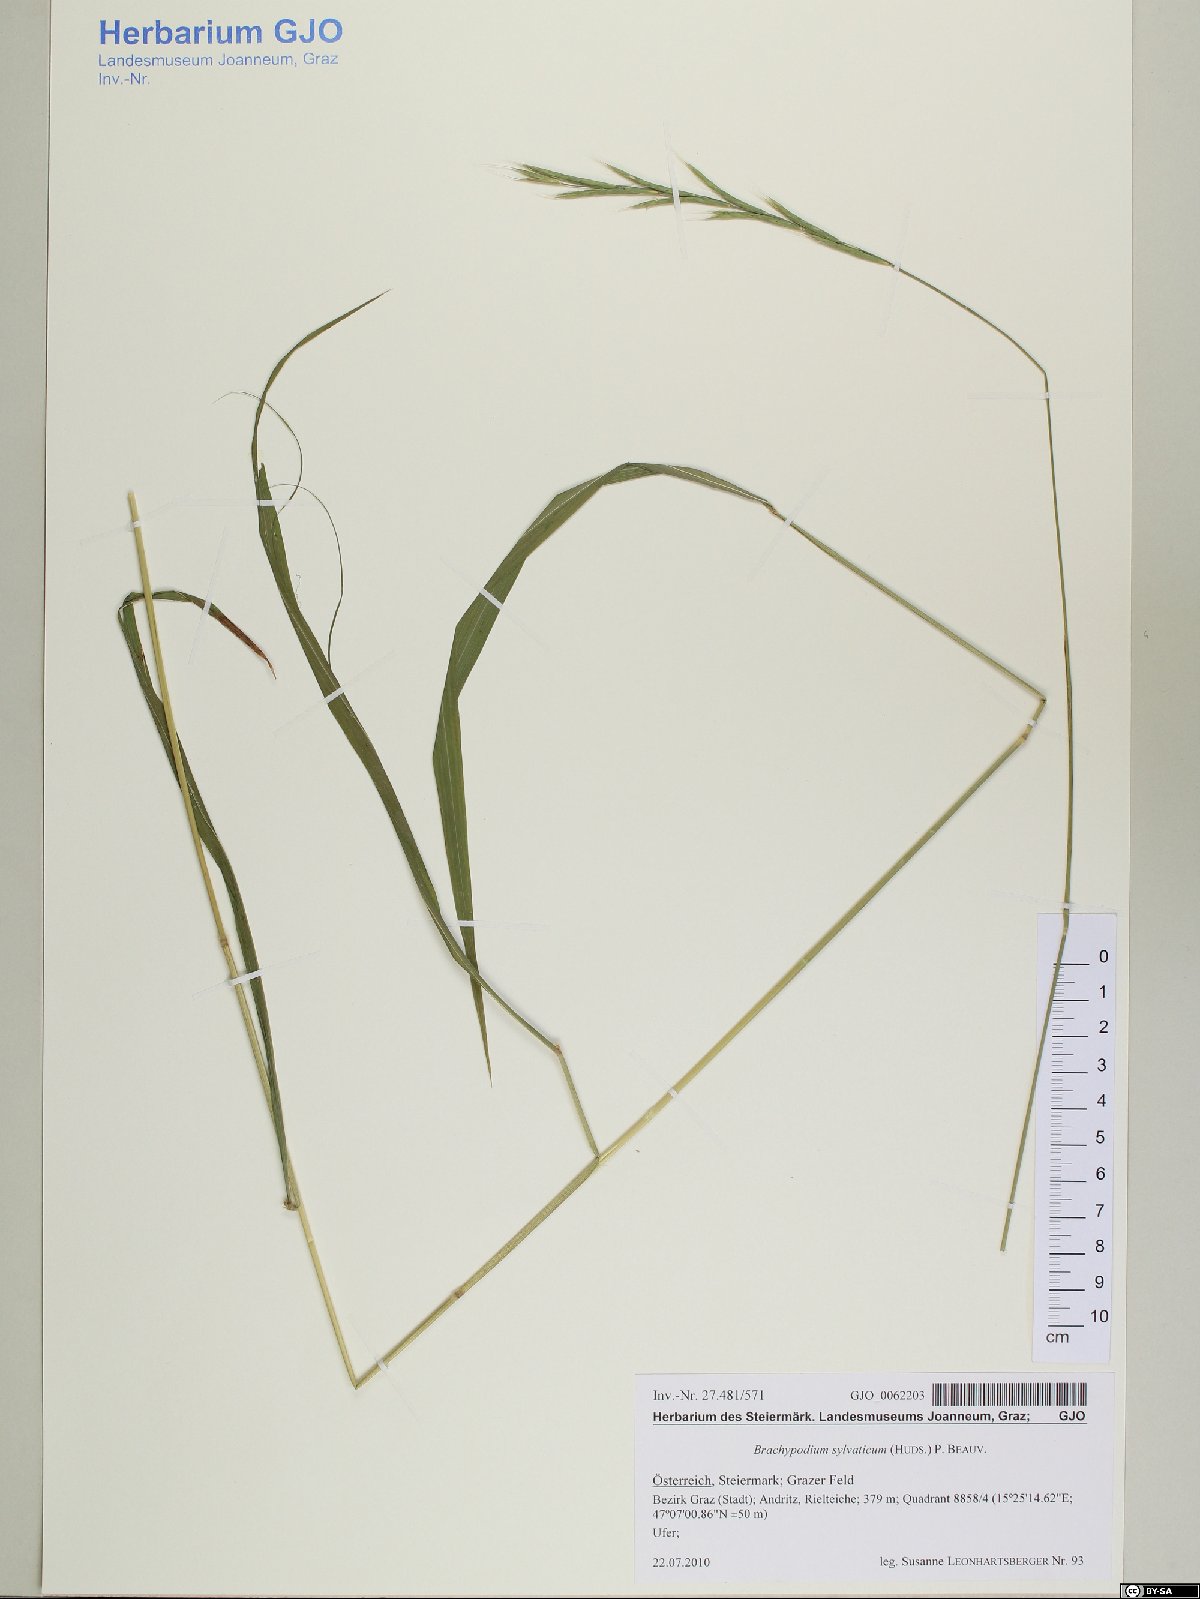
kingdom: Plantae
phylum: Tracheophyta
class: Liliopsida
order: Poales
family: Poaceae
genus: Brachypodium
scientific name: Brachypodium sylvaticum
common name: False-brome
